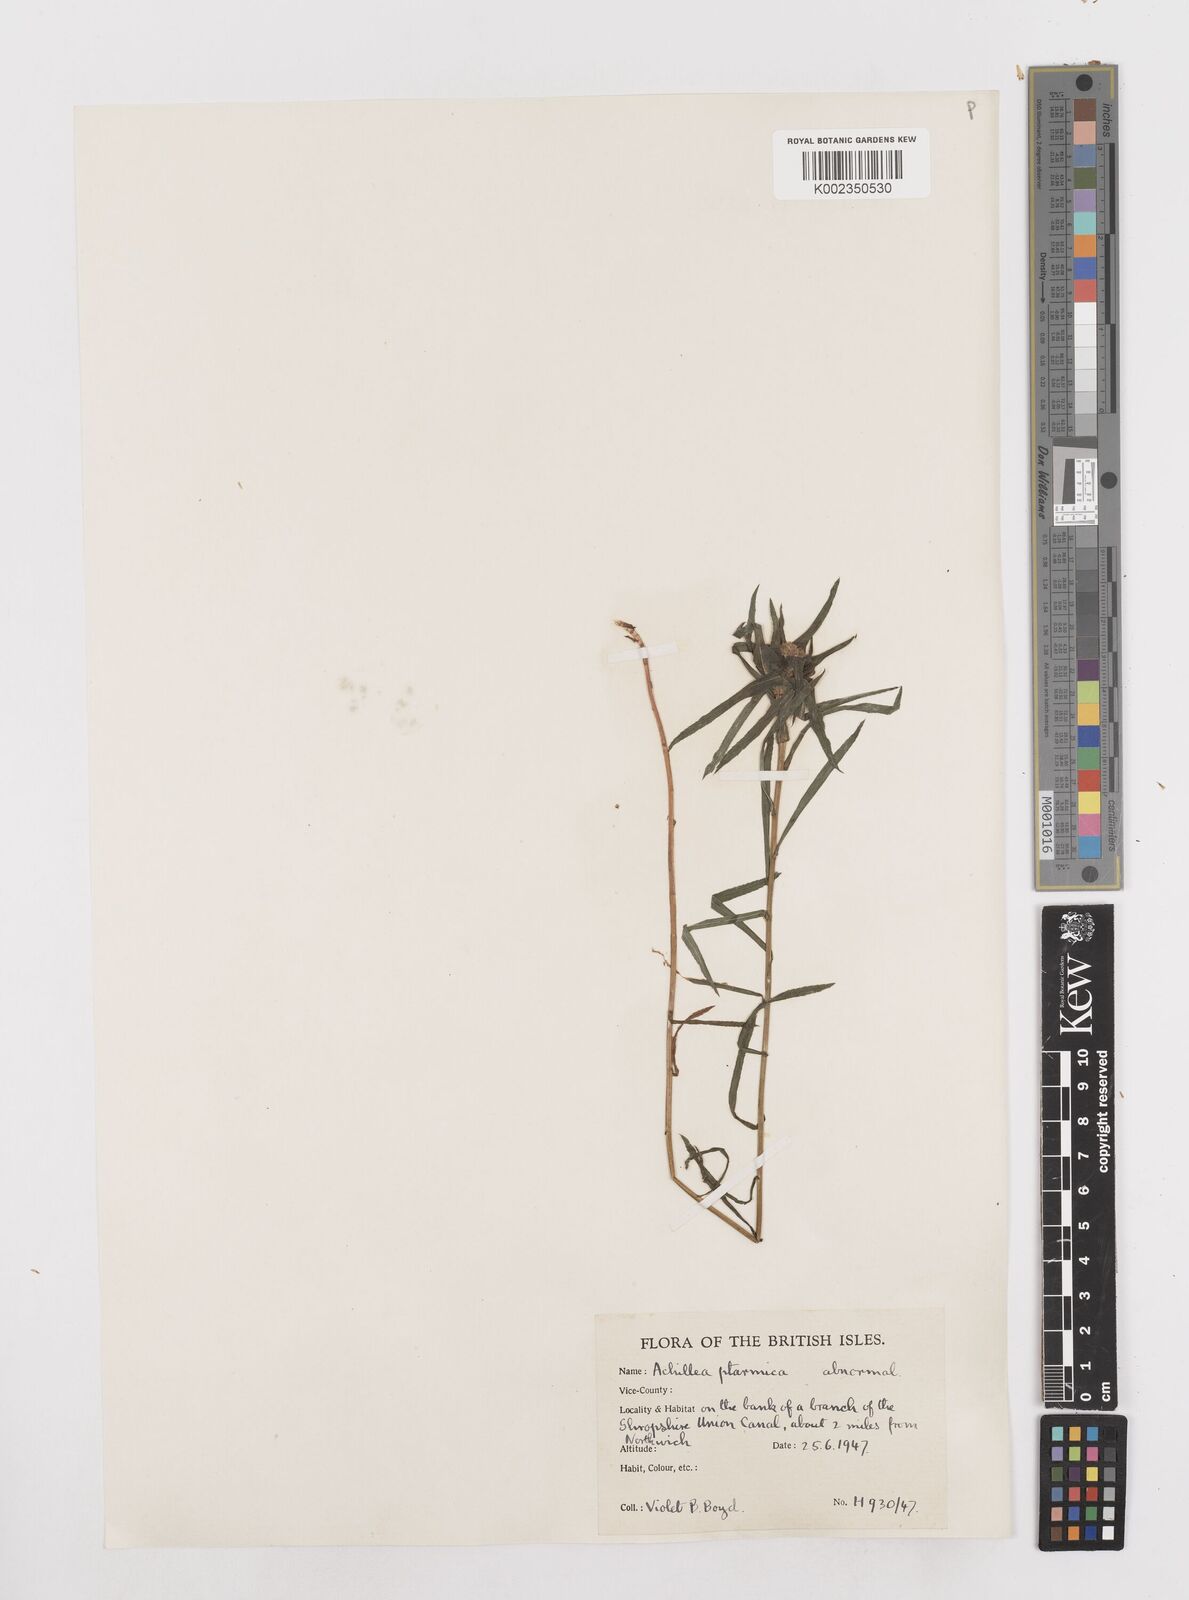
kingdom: Plantae
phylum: Tracheophyta
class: Magnoliopsida
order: Asterales
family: Asteraceae
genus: Achillea
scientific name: Achillea ptarmica
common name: Sneezeweed
